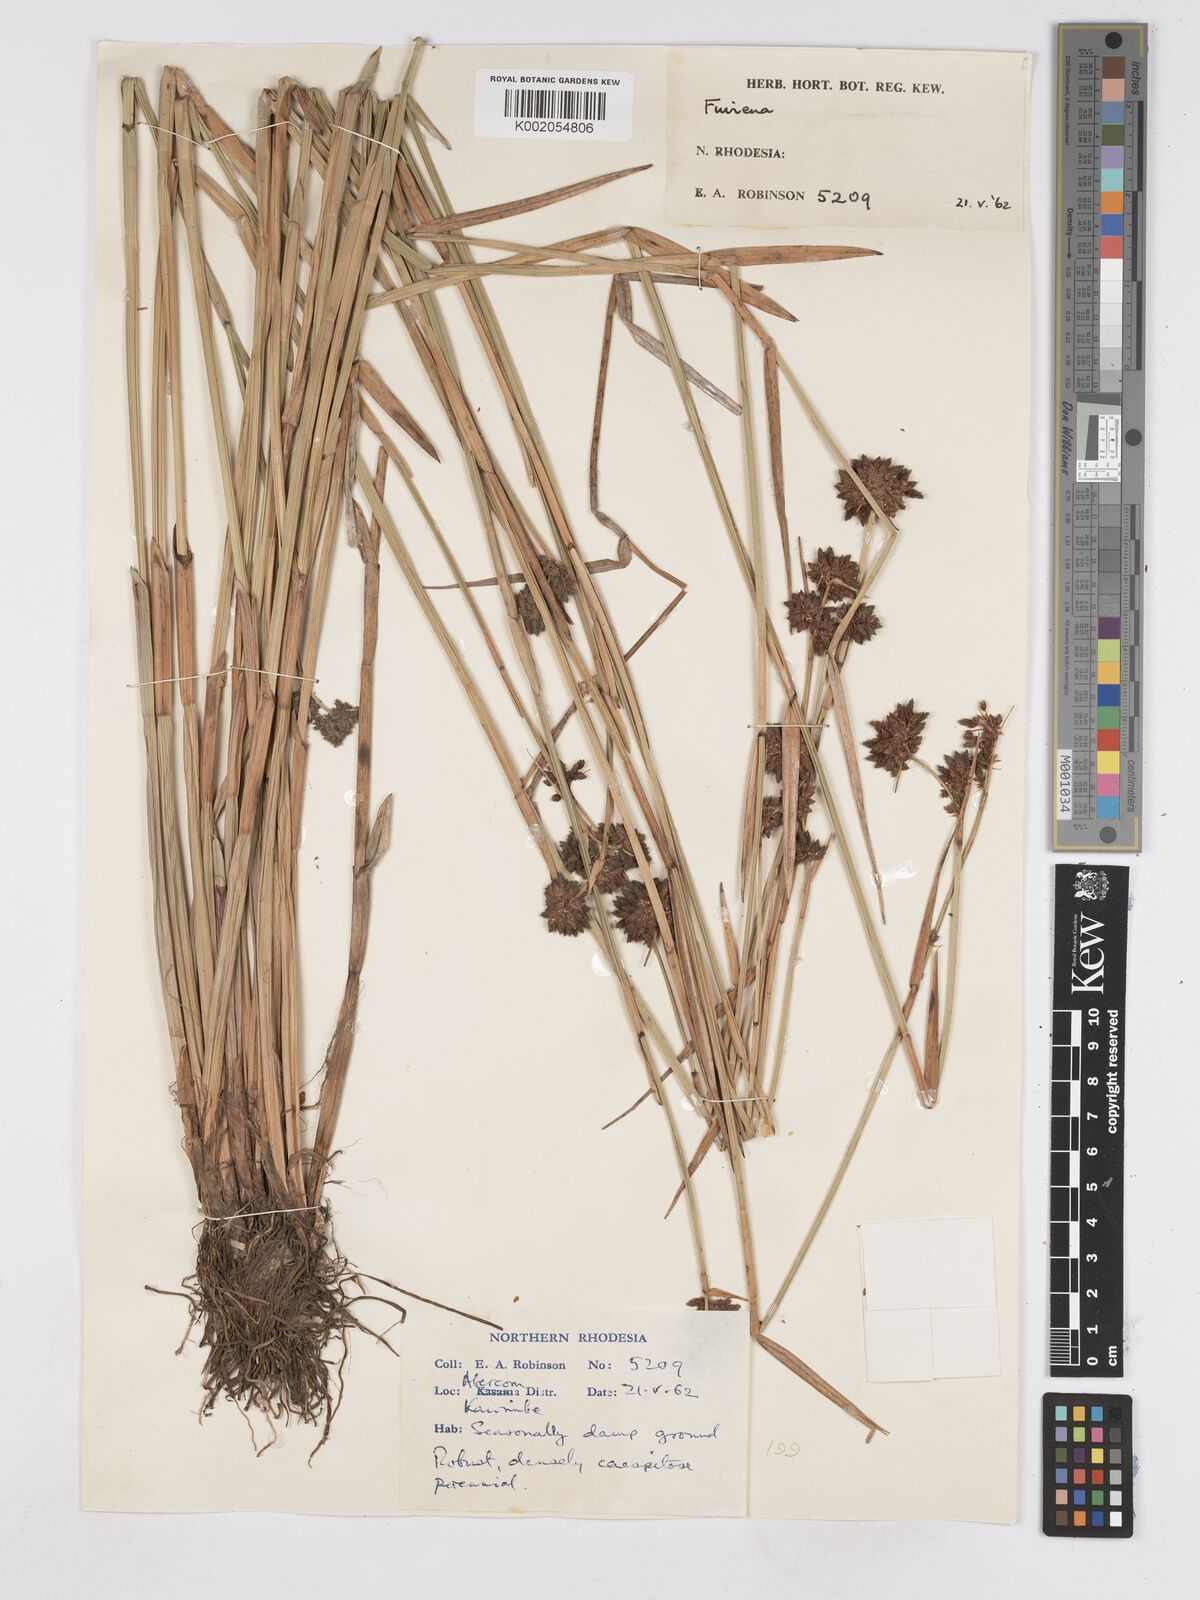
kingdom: Plantae
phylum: Tracheophyta
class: Liliopsida
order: Poales
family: Cyperaceae
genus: Fuirena
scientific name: Fuirena stricta
